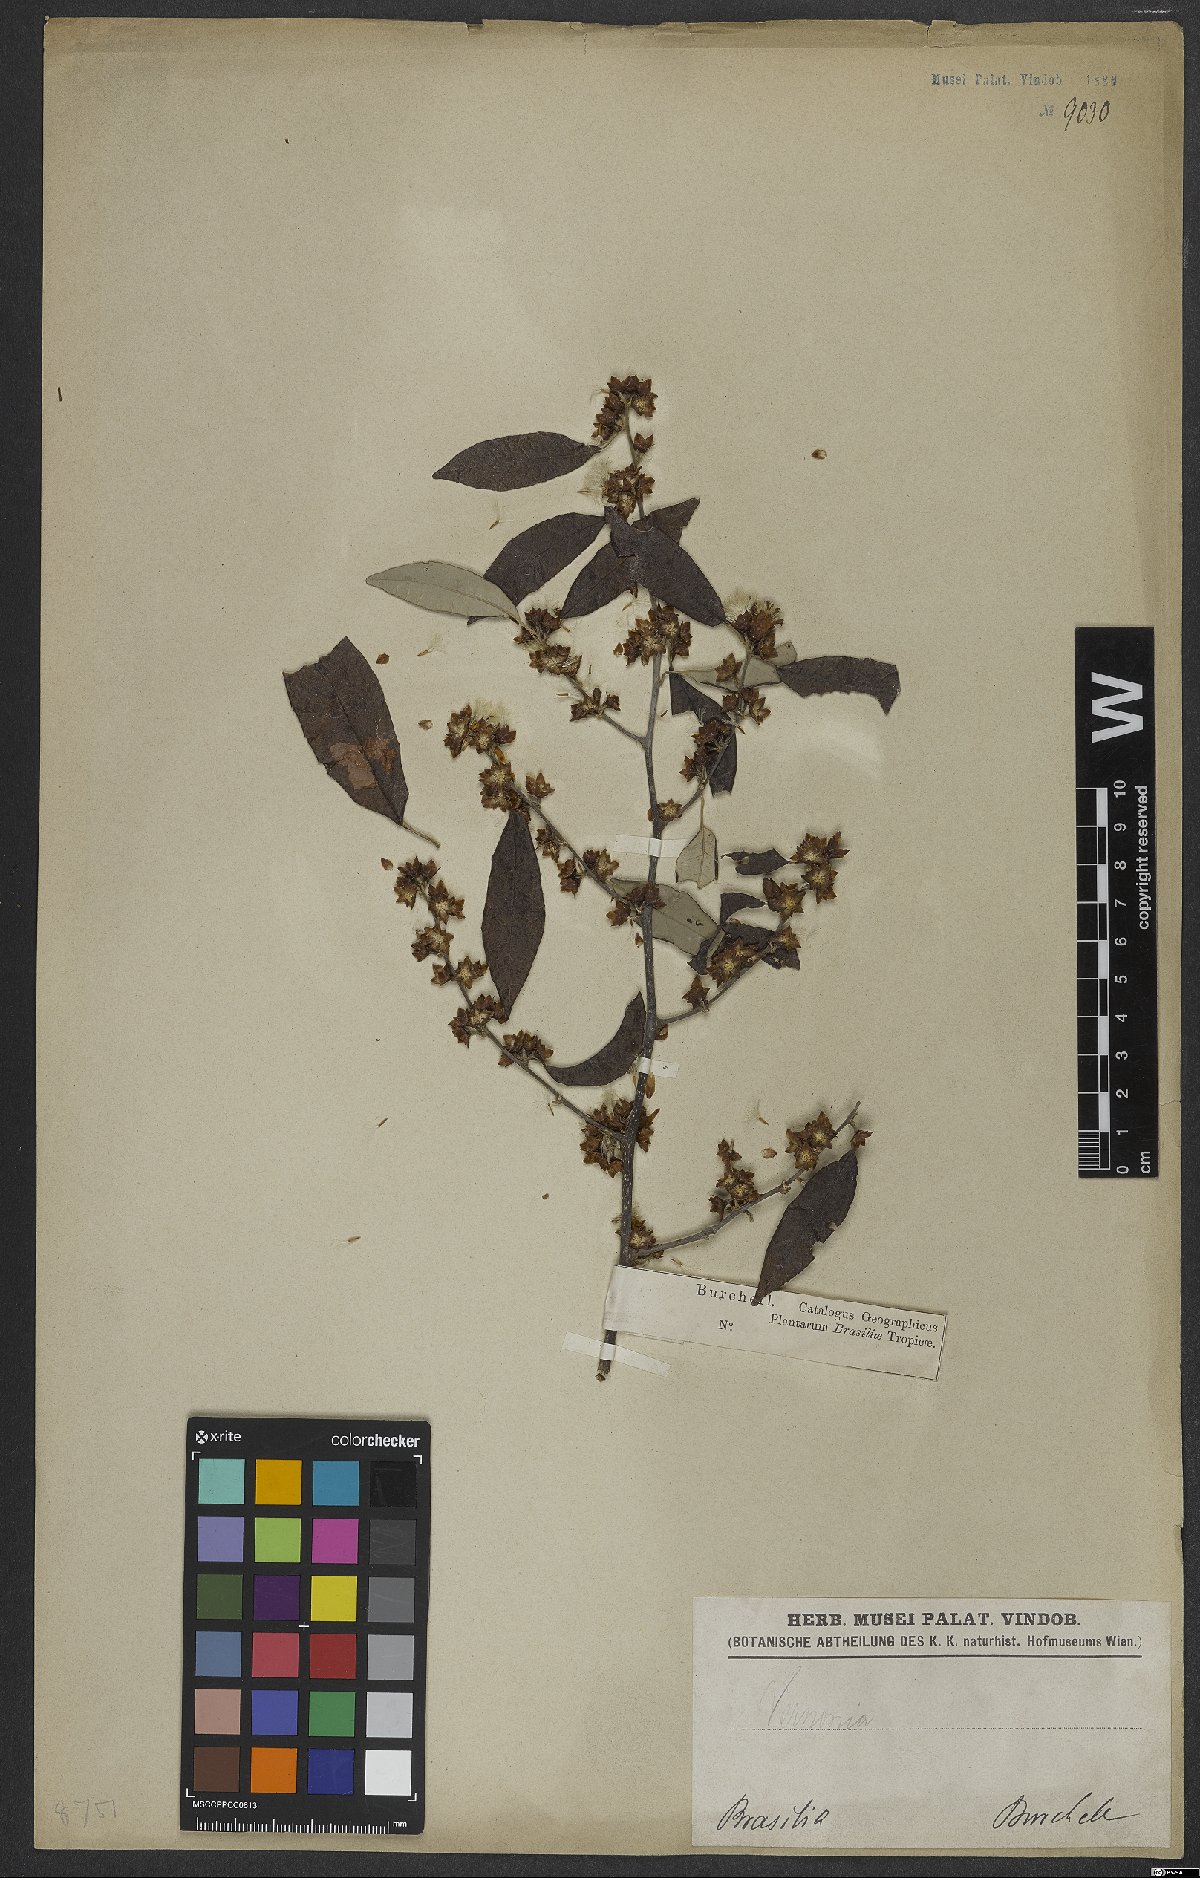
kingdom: Plantae
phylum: Tracheophyta
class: Magnoliopsida
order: Asterales
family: Asteraceae
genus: Vernonia
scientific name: Vernonia
